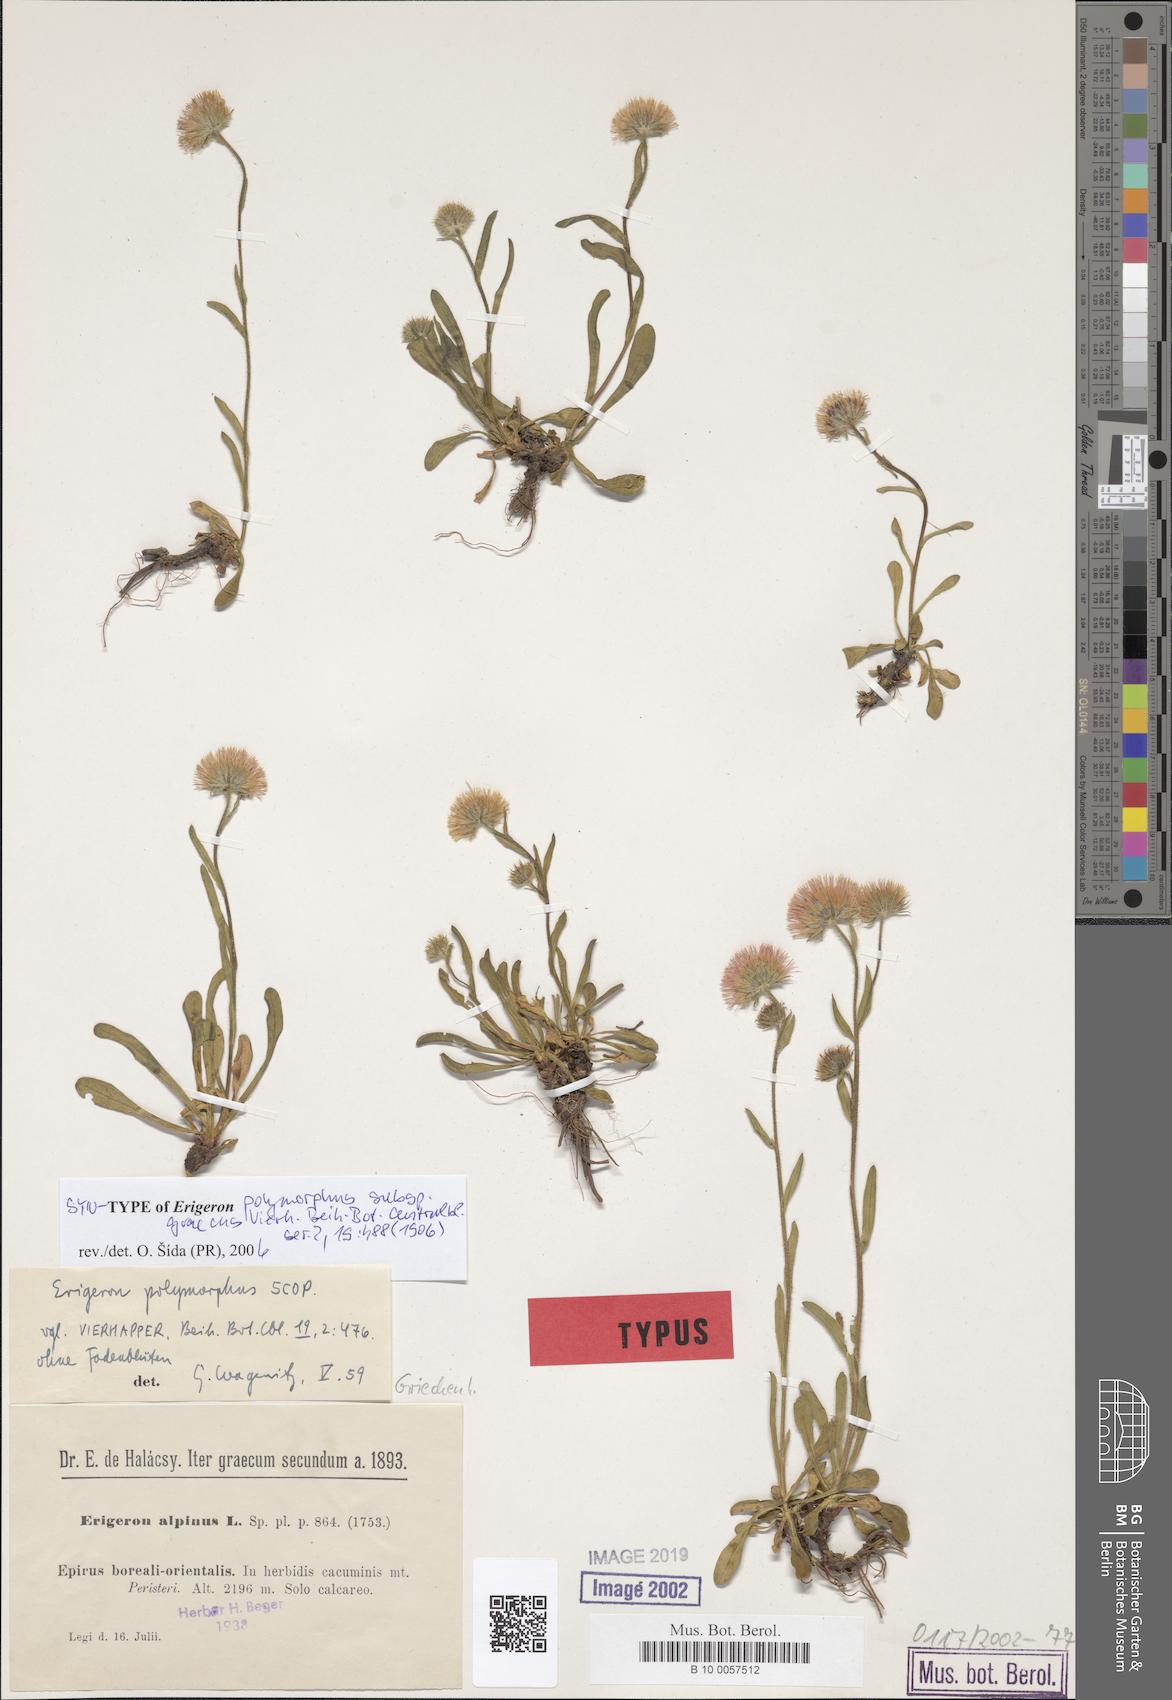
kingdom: Plantae
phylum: Tracheophyta
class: Magnoliopsida
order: Asterales
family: Asteraceae
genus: Erigeron
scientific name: Erigeron glabratus
